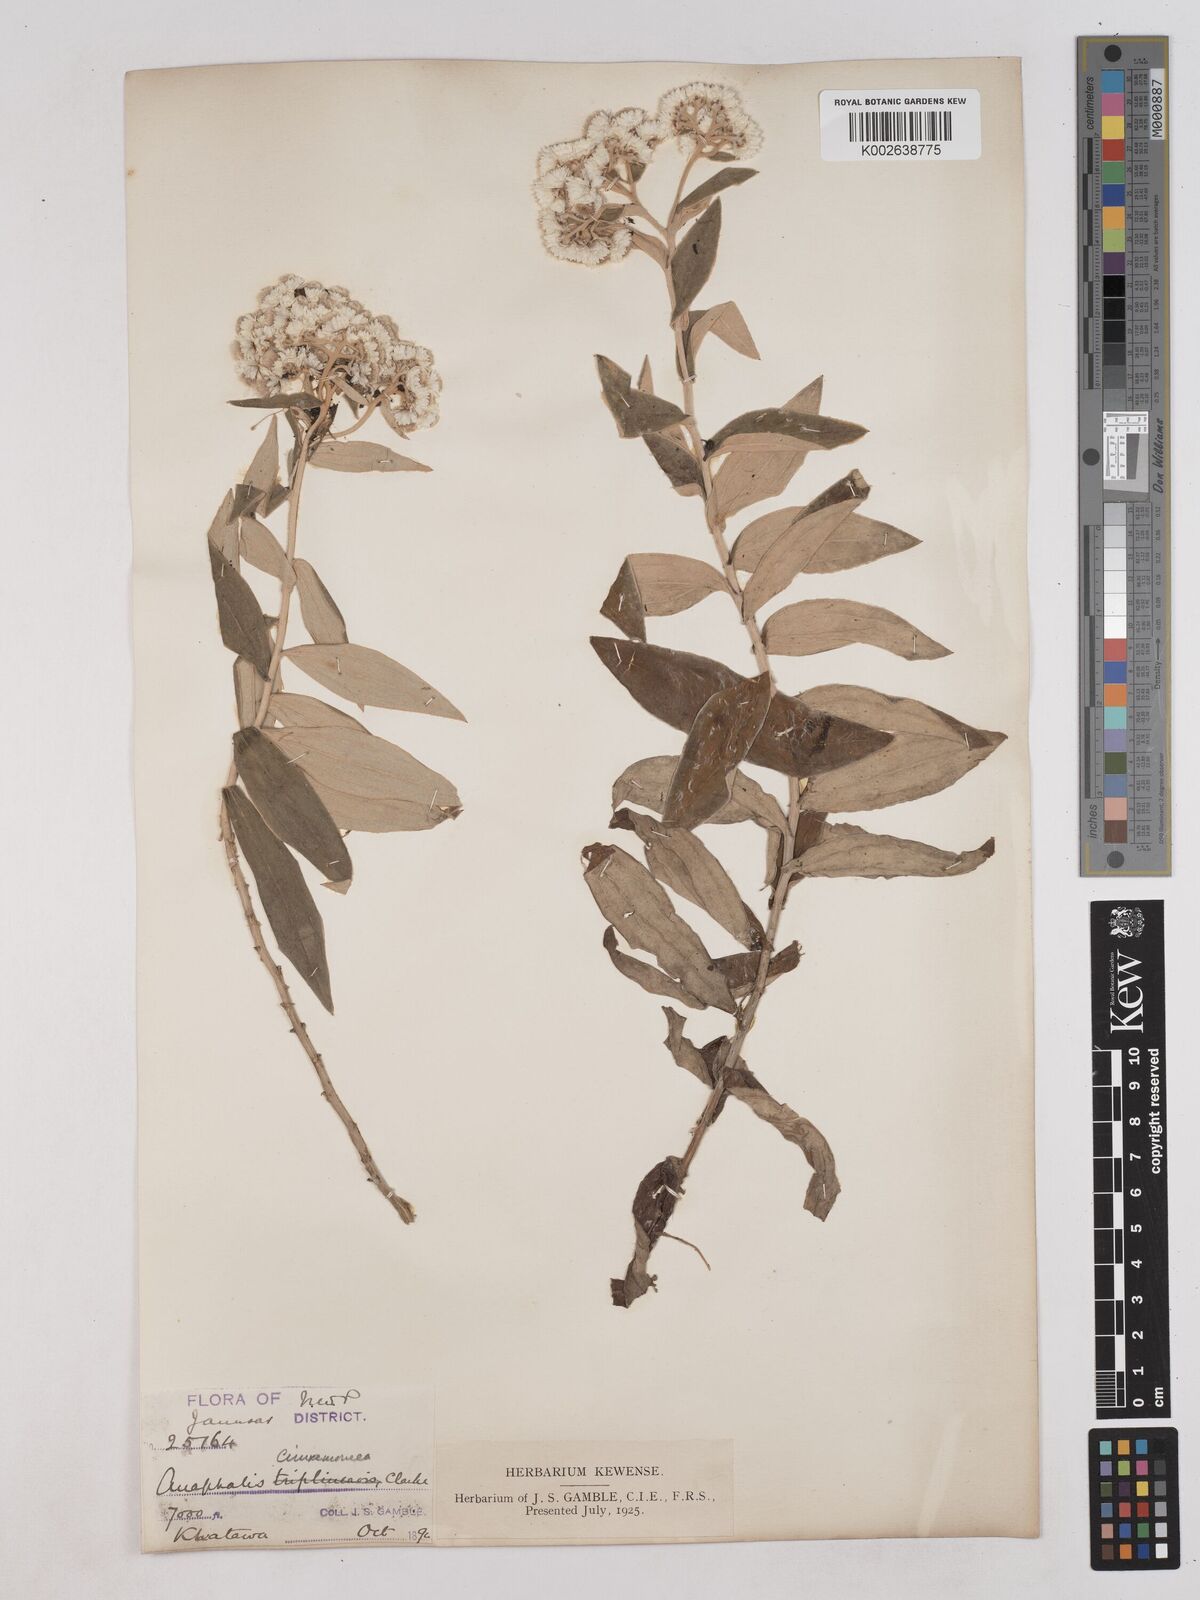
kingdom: Plantae
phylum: Tracheophyta
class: Magnoliopsida
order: Asterales
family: Asteraceae
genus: Anaphalis
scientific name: Anaphalis marcescens
